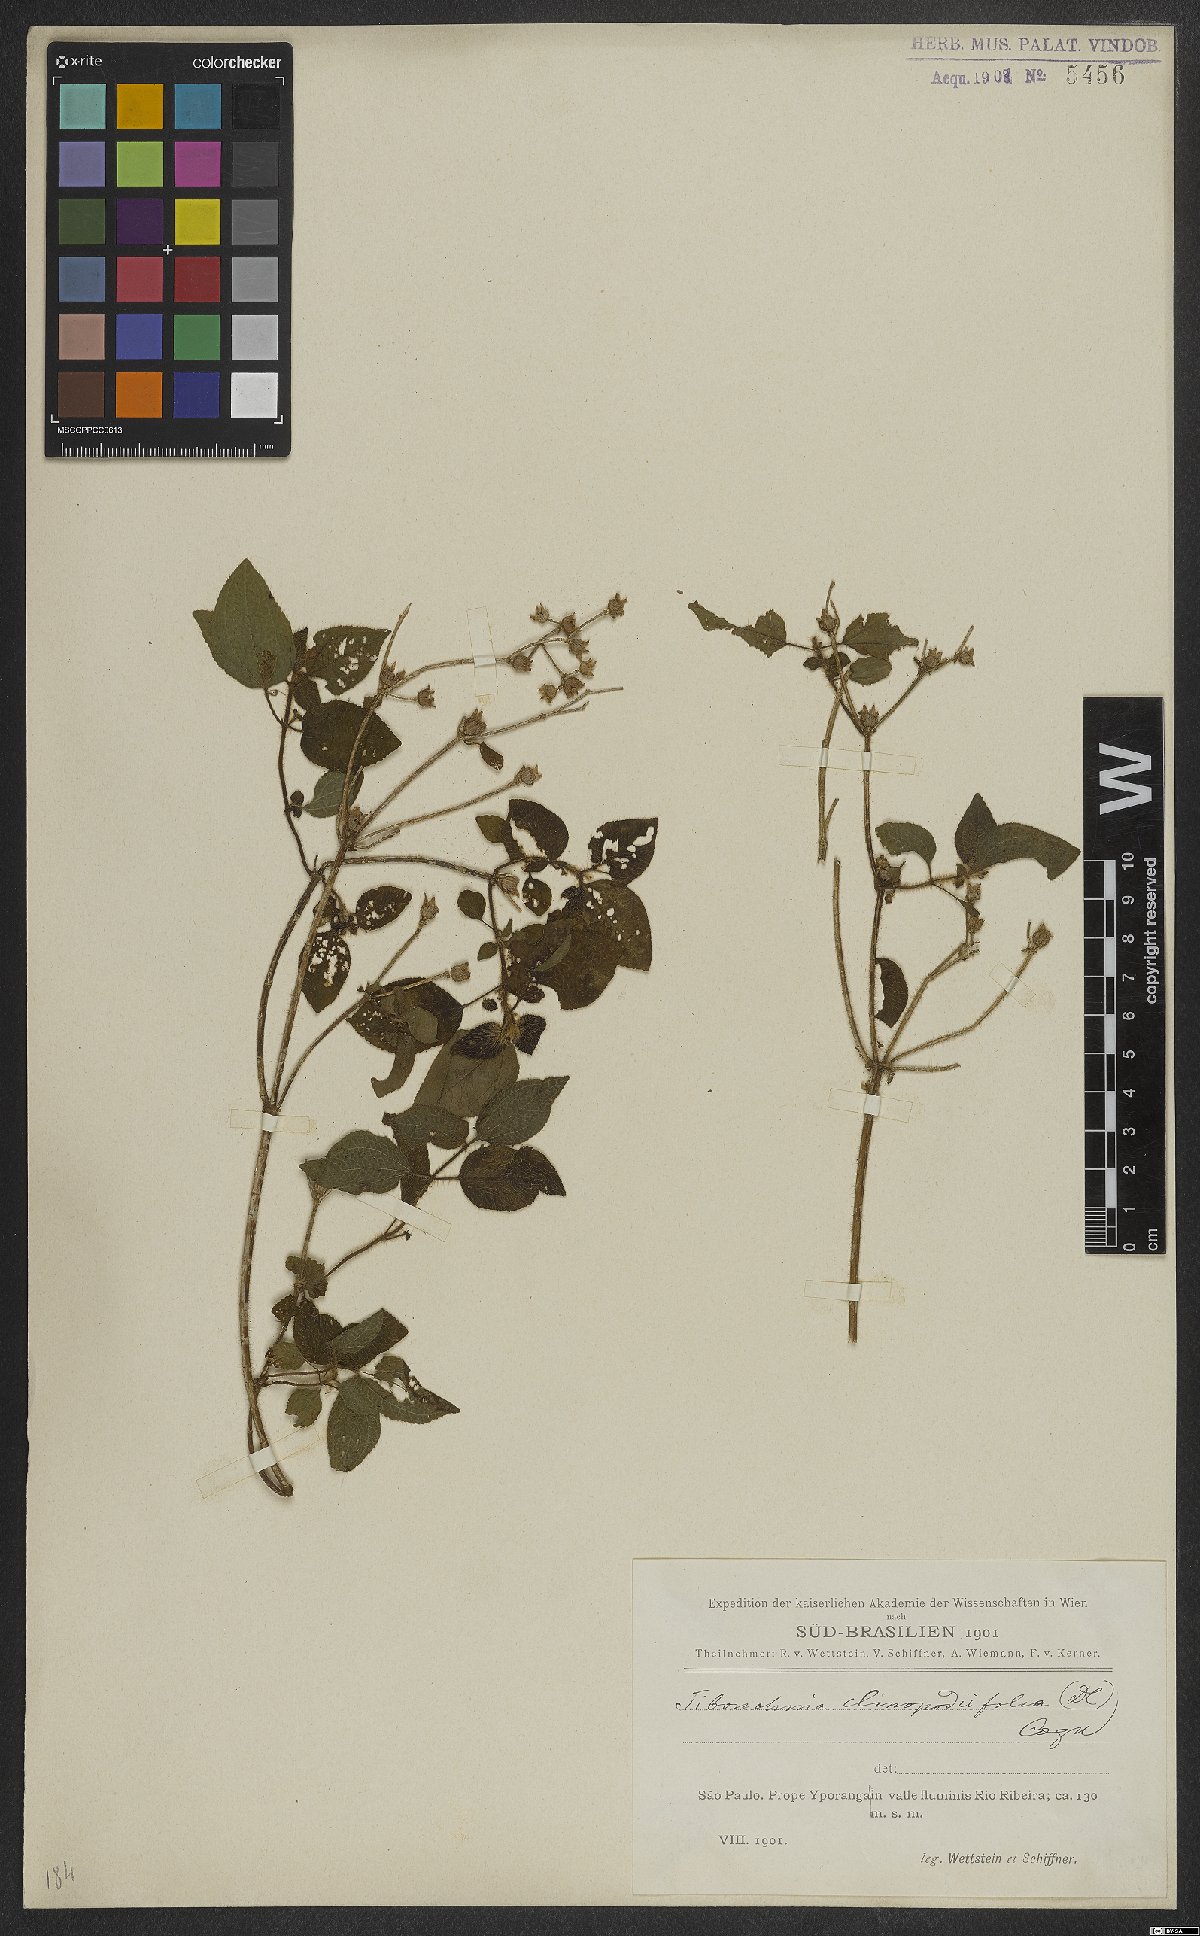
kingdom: Plantae
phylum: Tracheophyta
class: Magnoliopsida
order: Myrtales
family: Melastomataceae
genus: Chaetogastra
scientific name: Chaetogastra clinopodifolia
